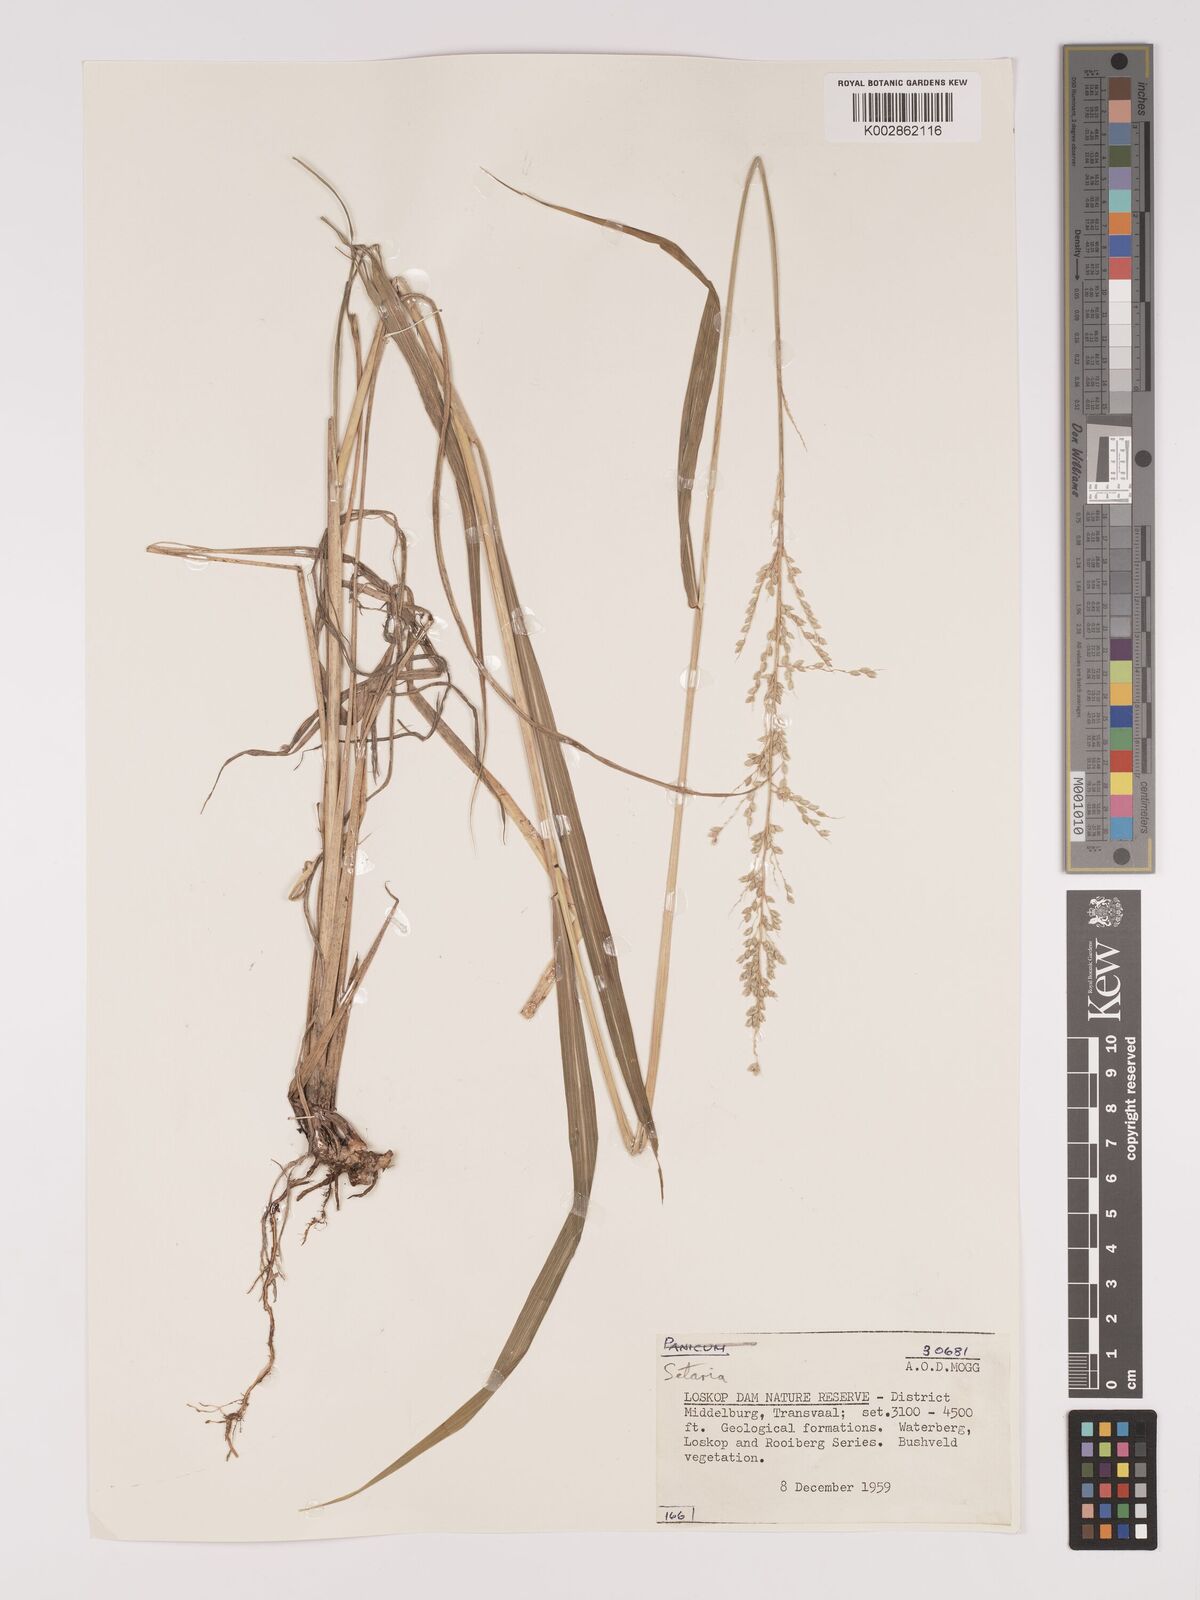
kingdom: Plantae
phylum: Tracheophyta
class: Liliopsida
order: Poales
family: Poaceae
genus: Setaria
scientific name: Setaria lindenbergiana
